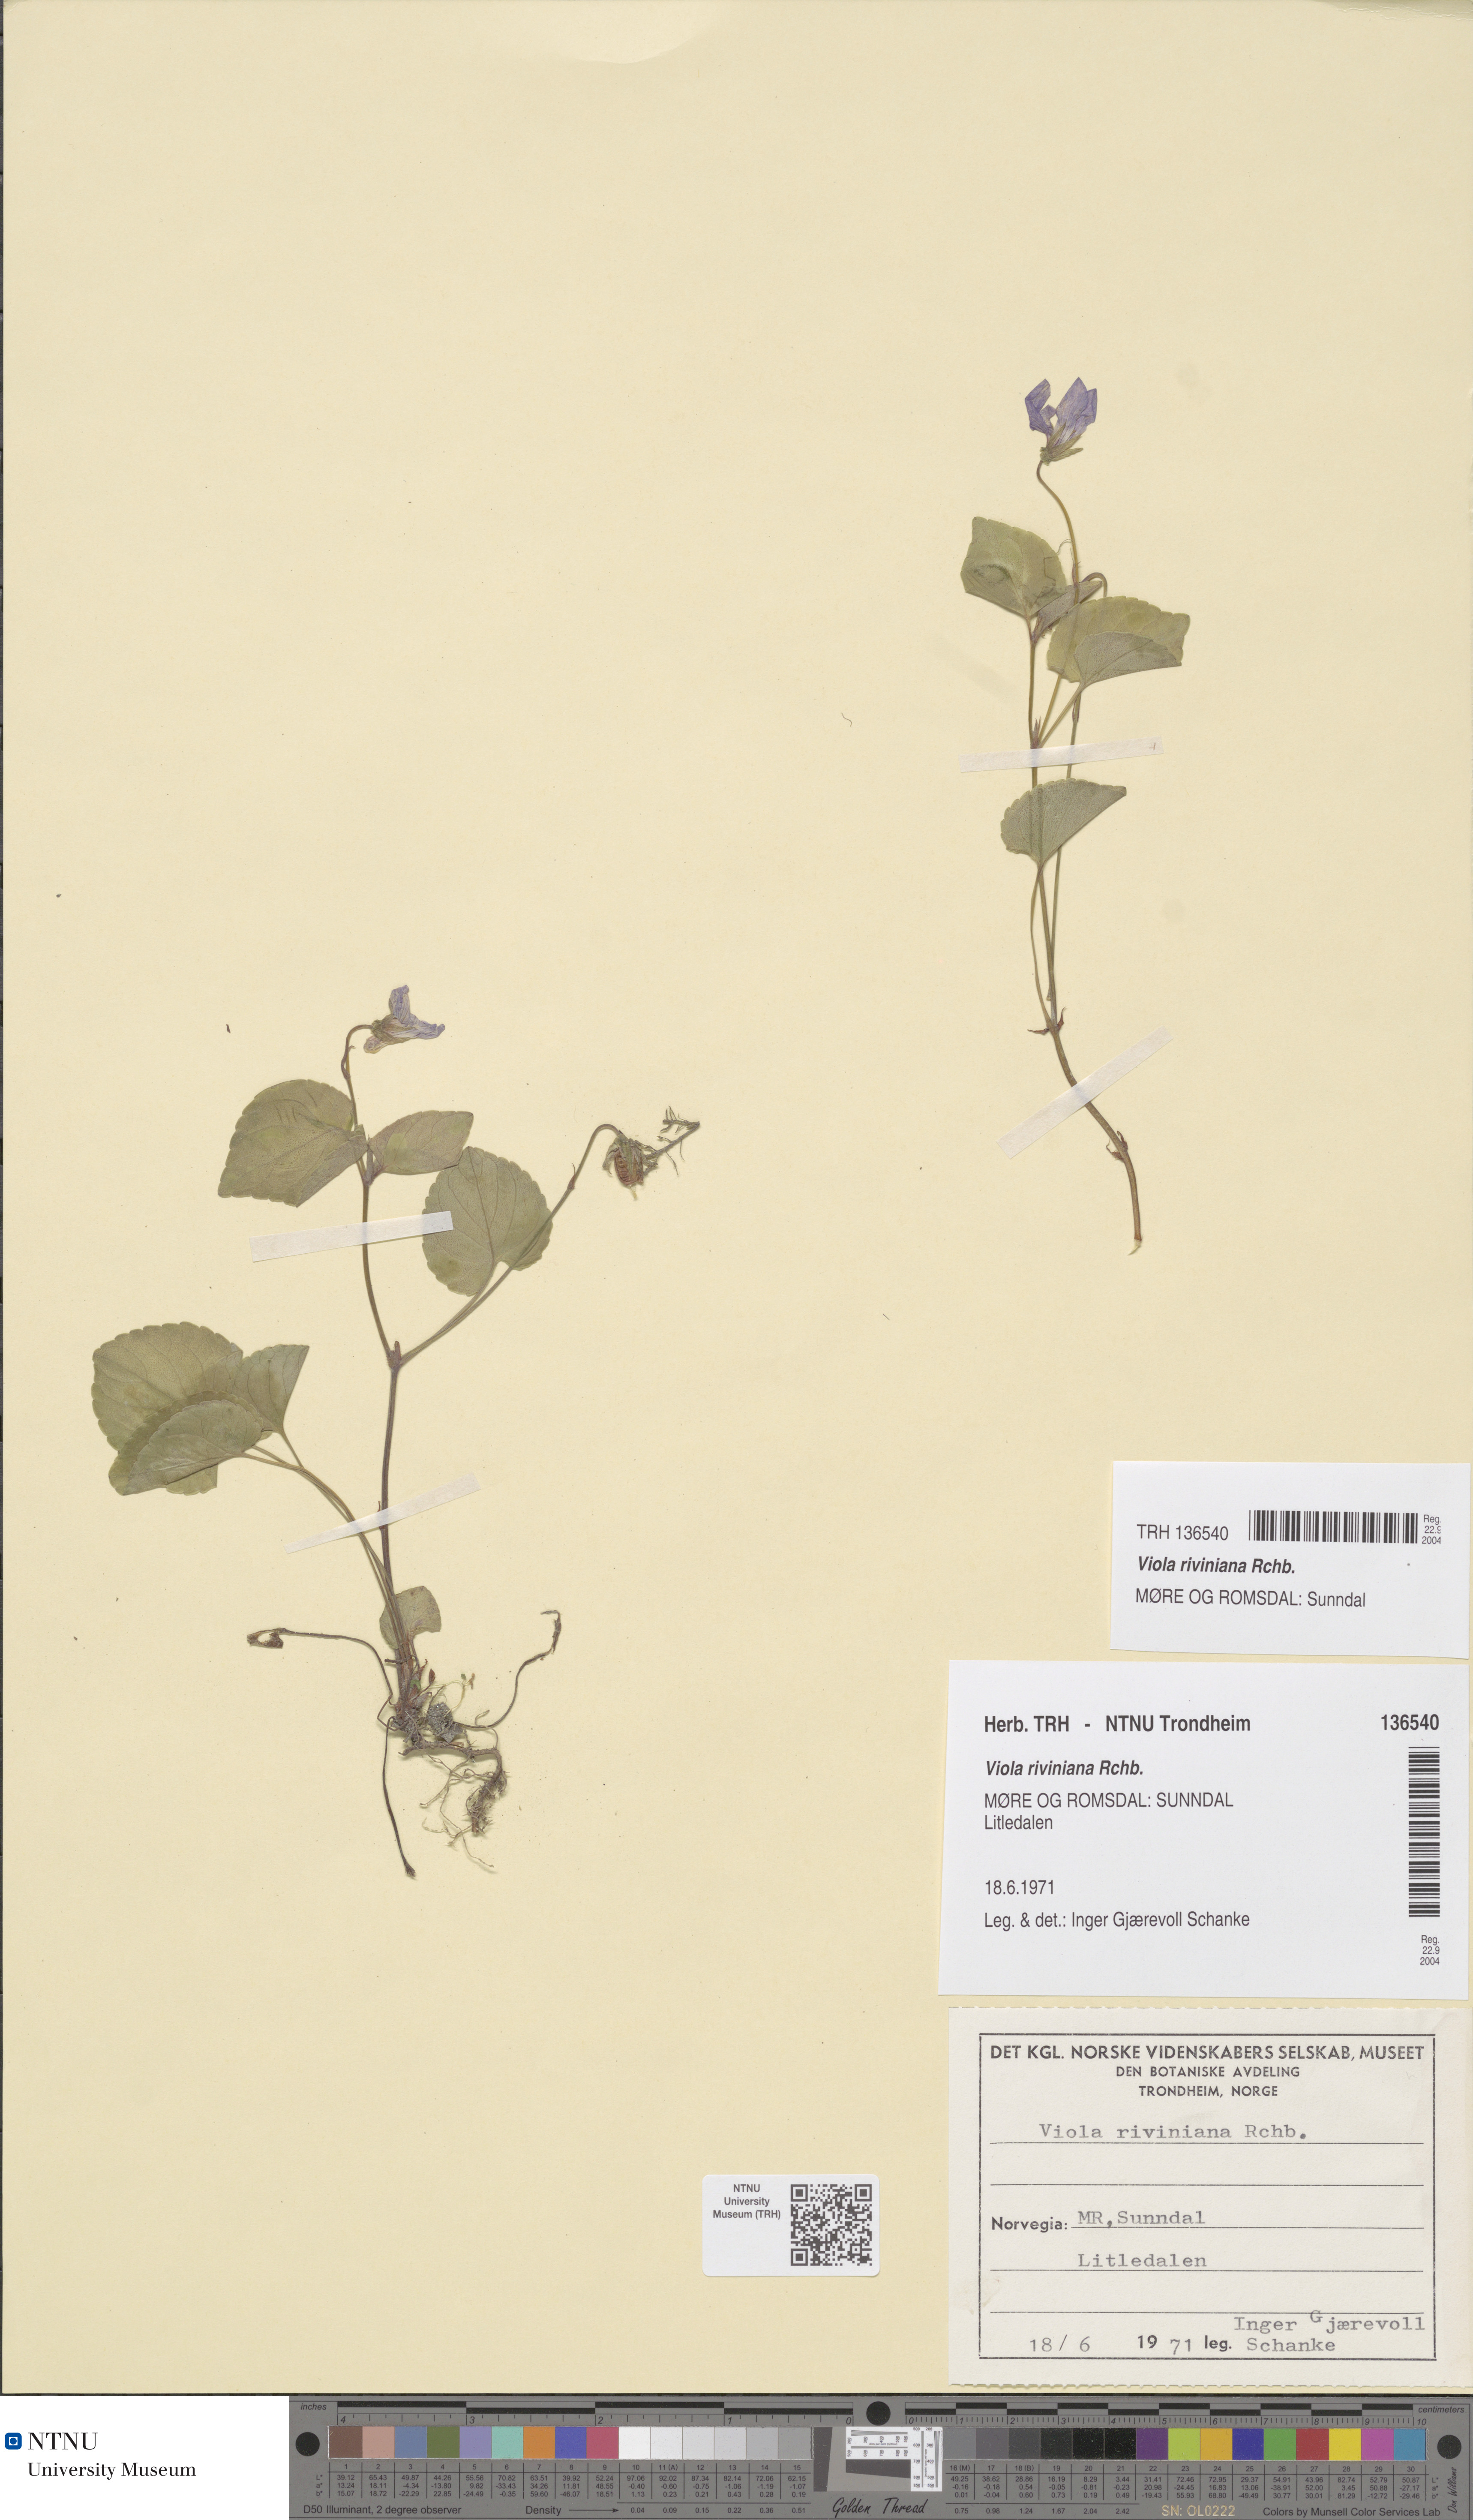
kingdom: Plantae
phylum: Tracheophyta
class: Magnoliopsida
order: Malpighiales
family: Violaceae
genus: Viola
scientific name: Viola riviniana
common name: Common dog-violet
